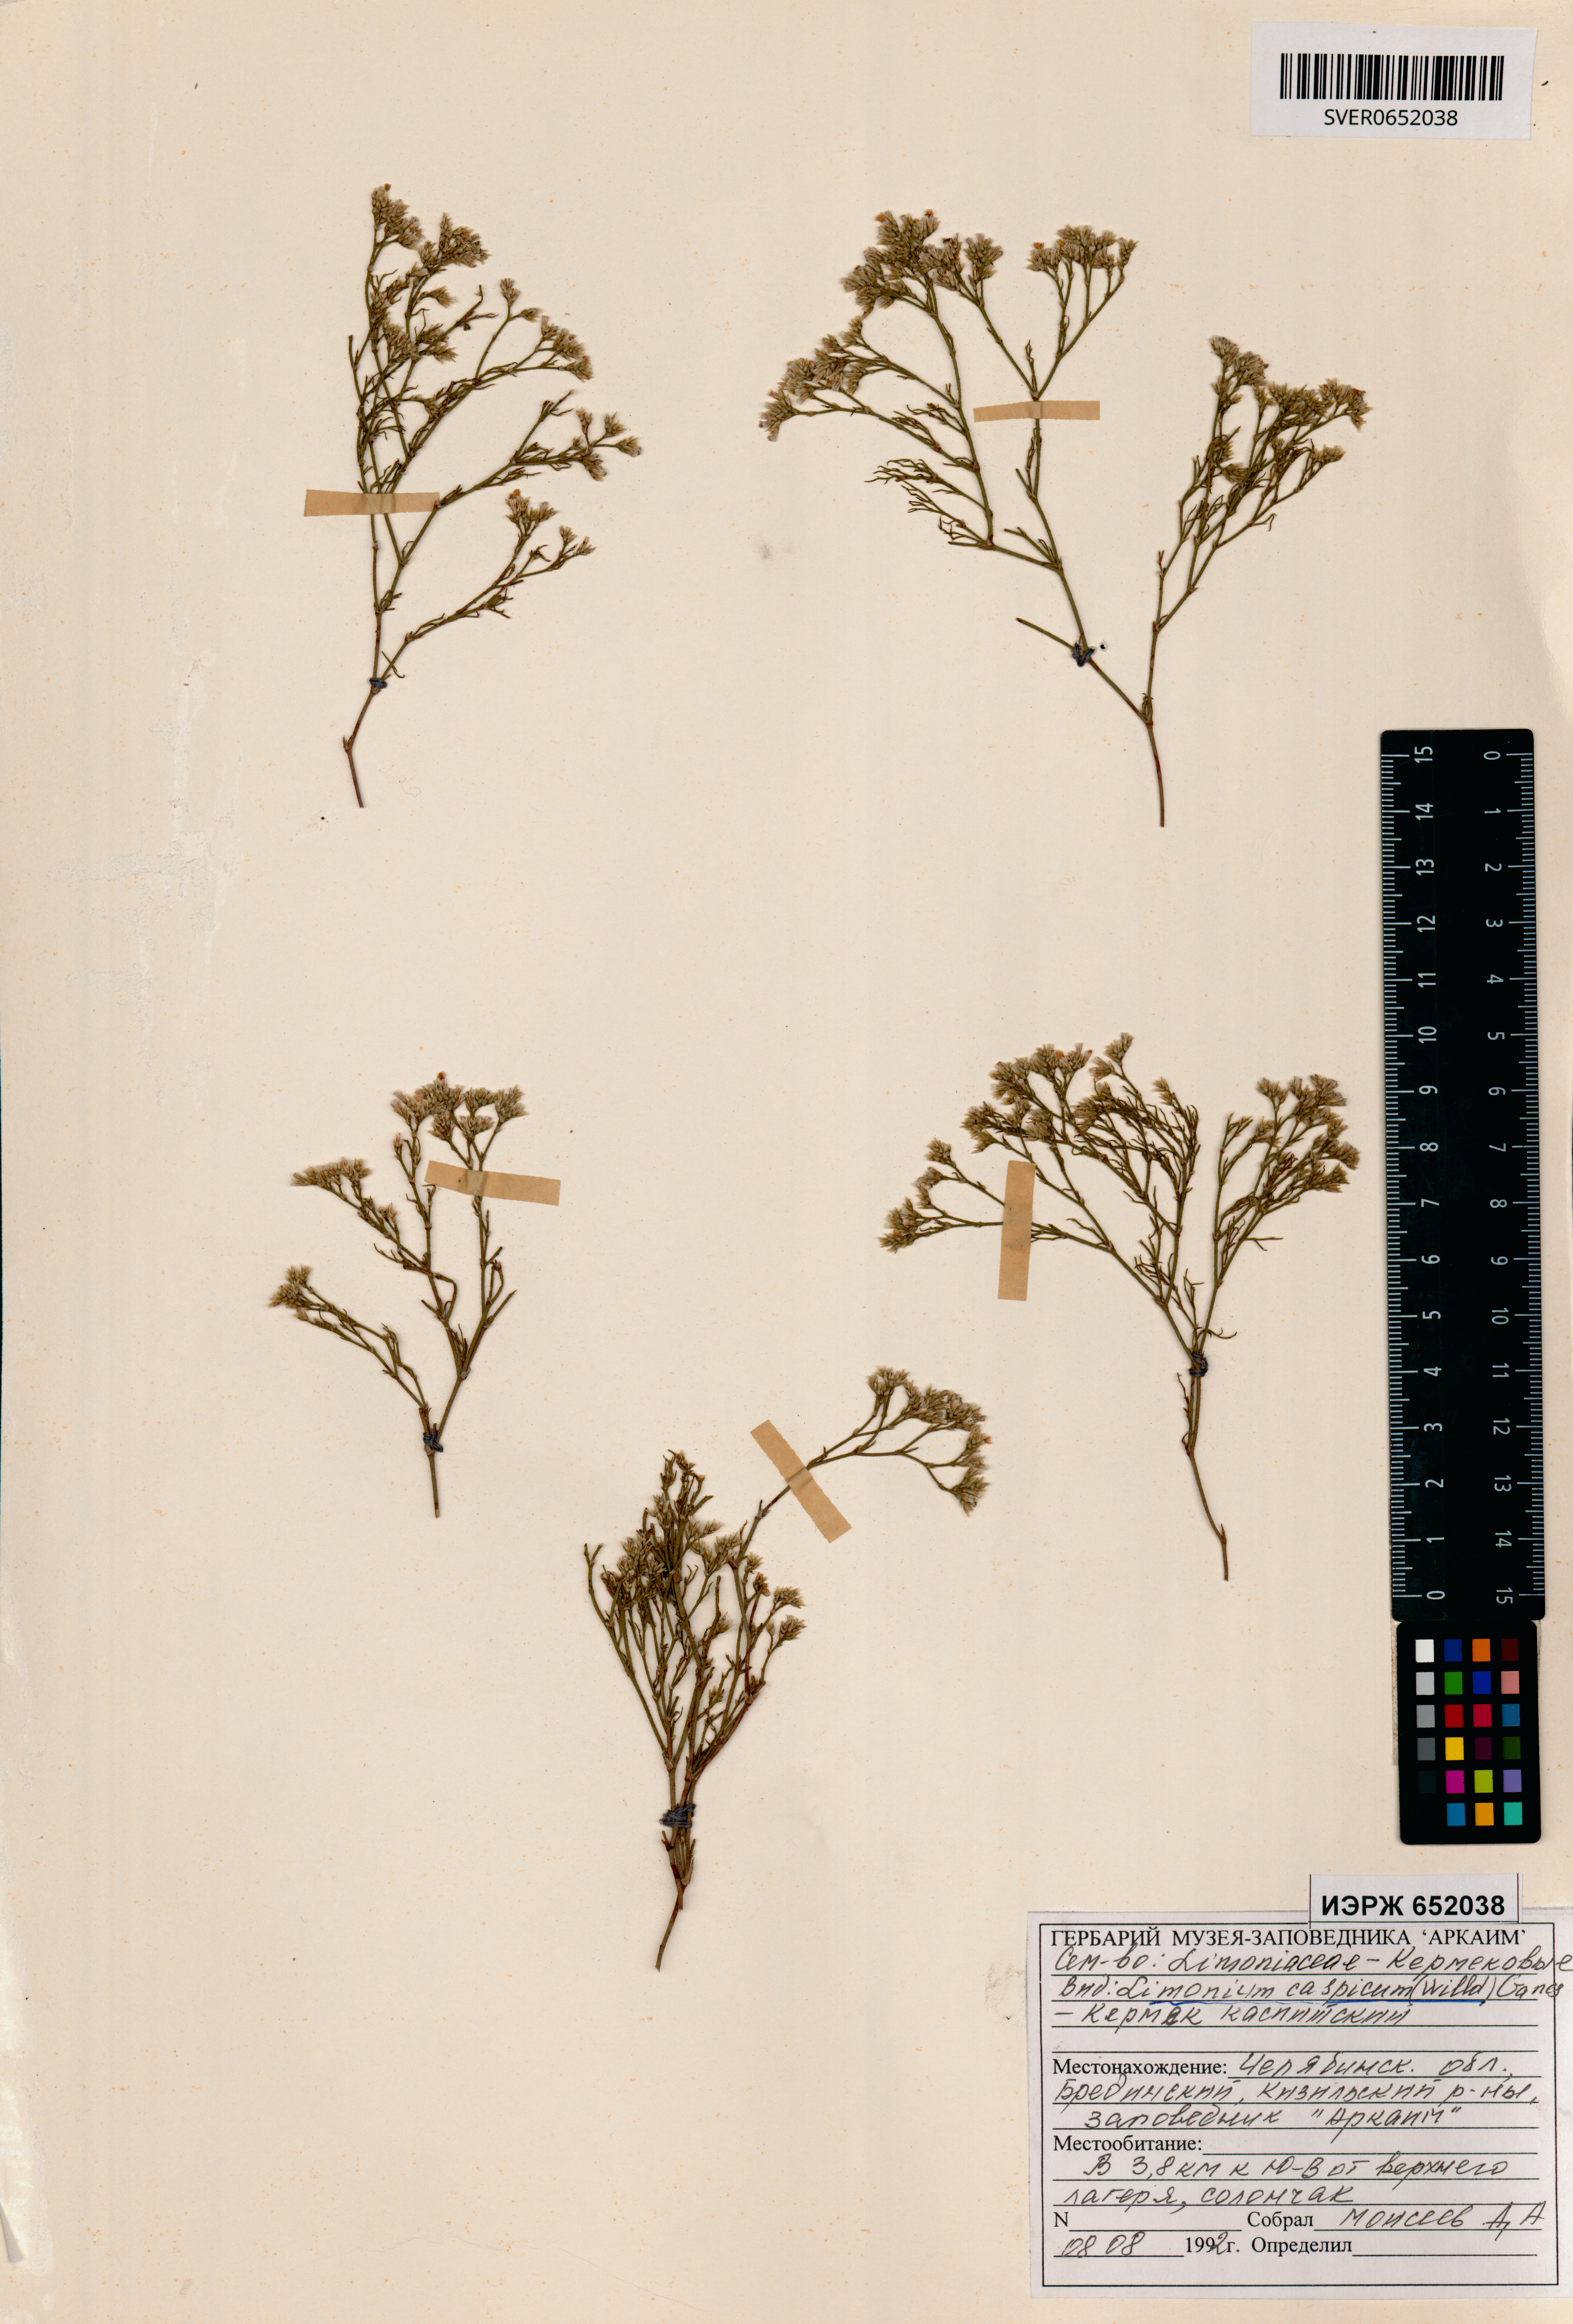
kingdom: Plantae
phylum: Tracheophyta
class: Magnoliopsida
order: Caryophyllales
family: Plumbaginaceae
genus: Limonium
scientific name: Limonium bellidifolium
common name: Matted sea-lavender
